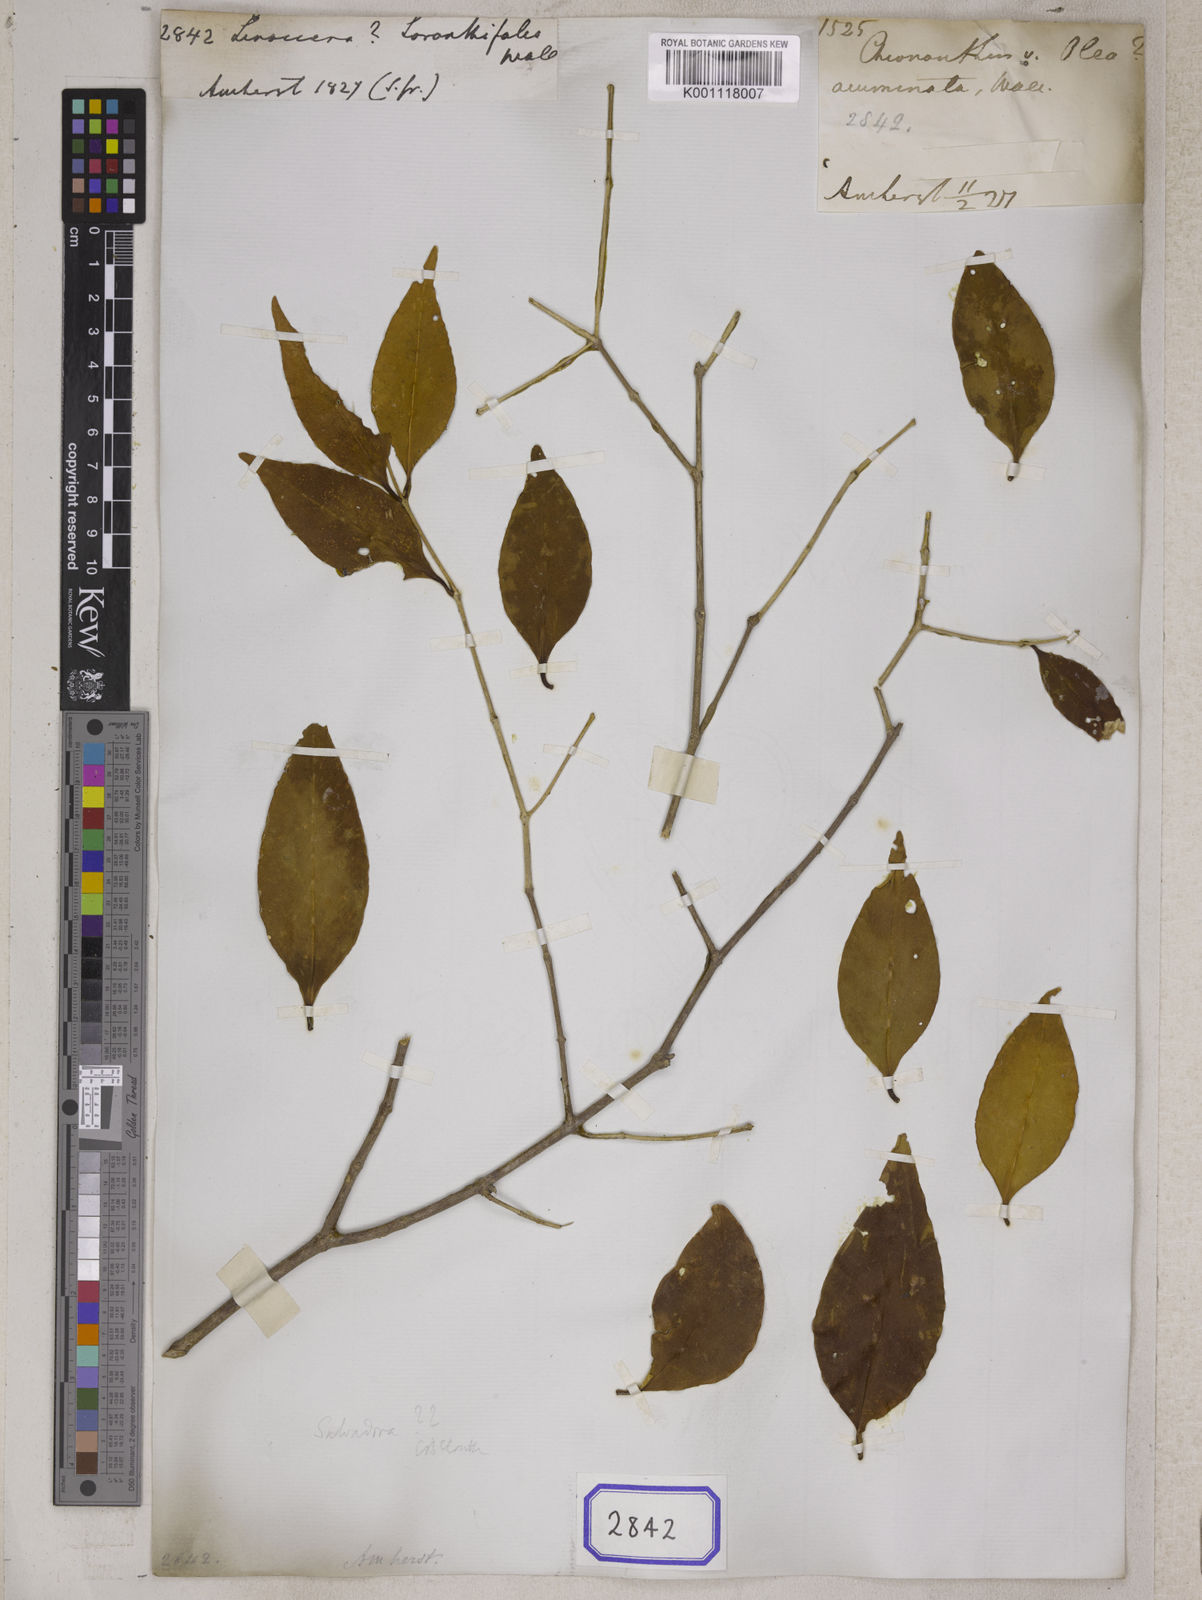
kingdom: Plantae
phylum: Tracheophyta
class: Magnoliopsida
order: Lamiales
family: Oleaceae
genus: Chionanthus
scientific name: Chionanthus
